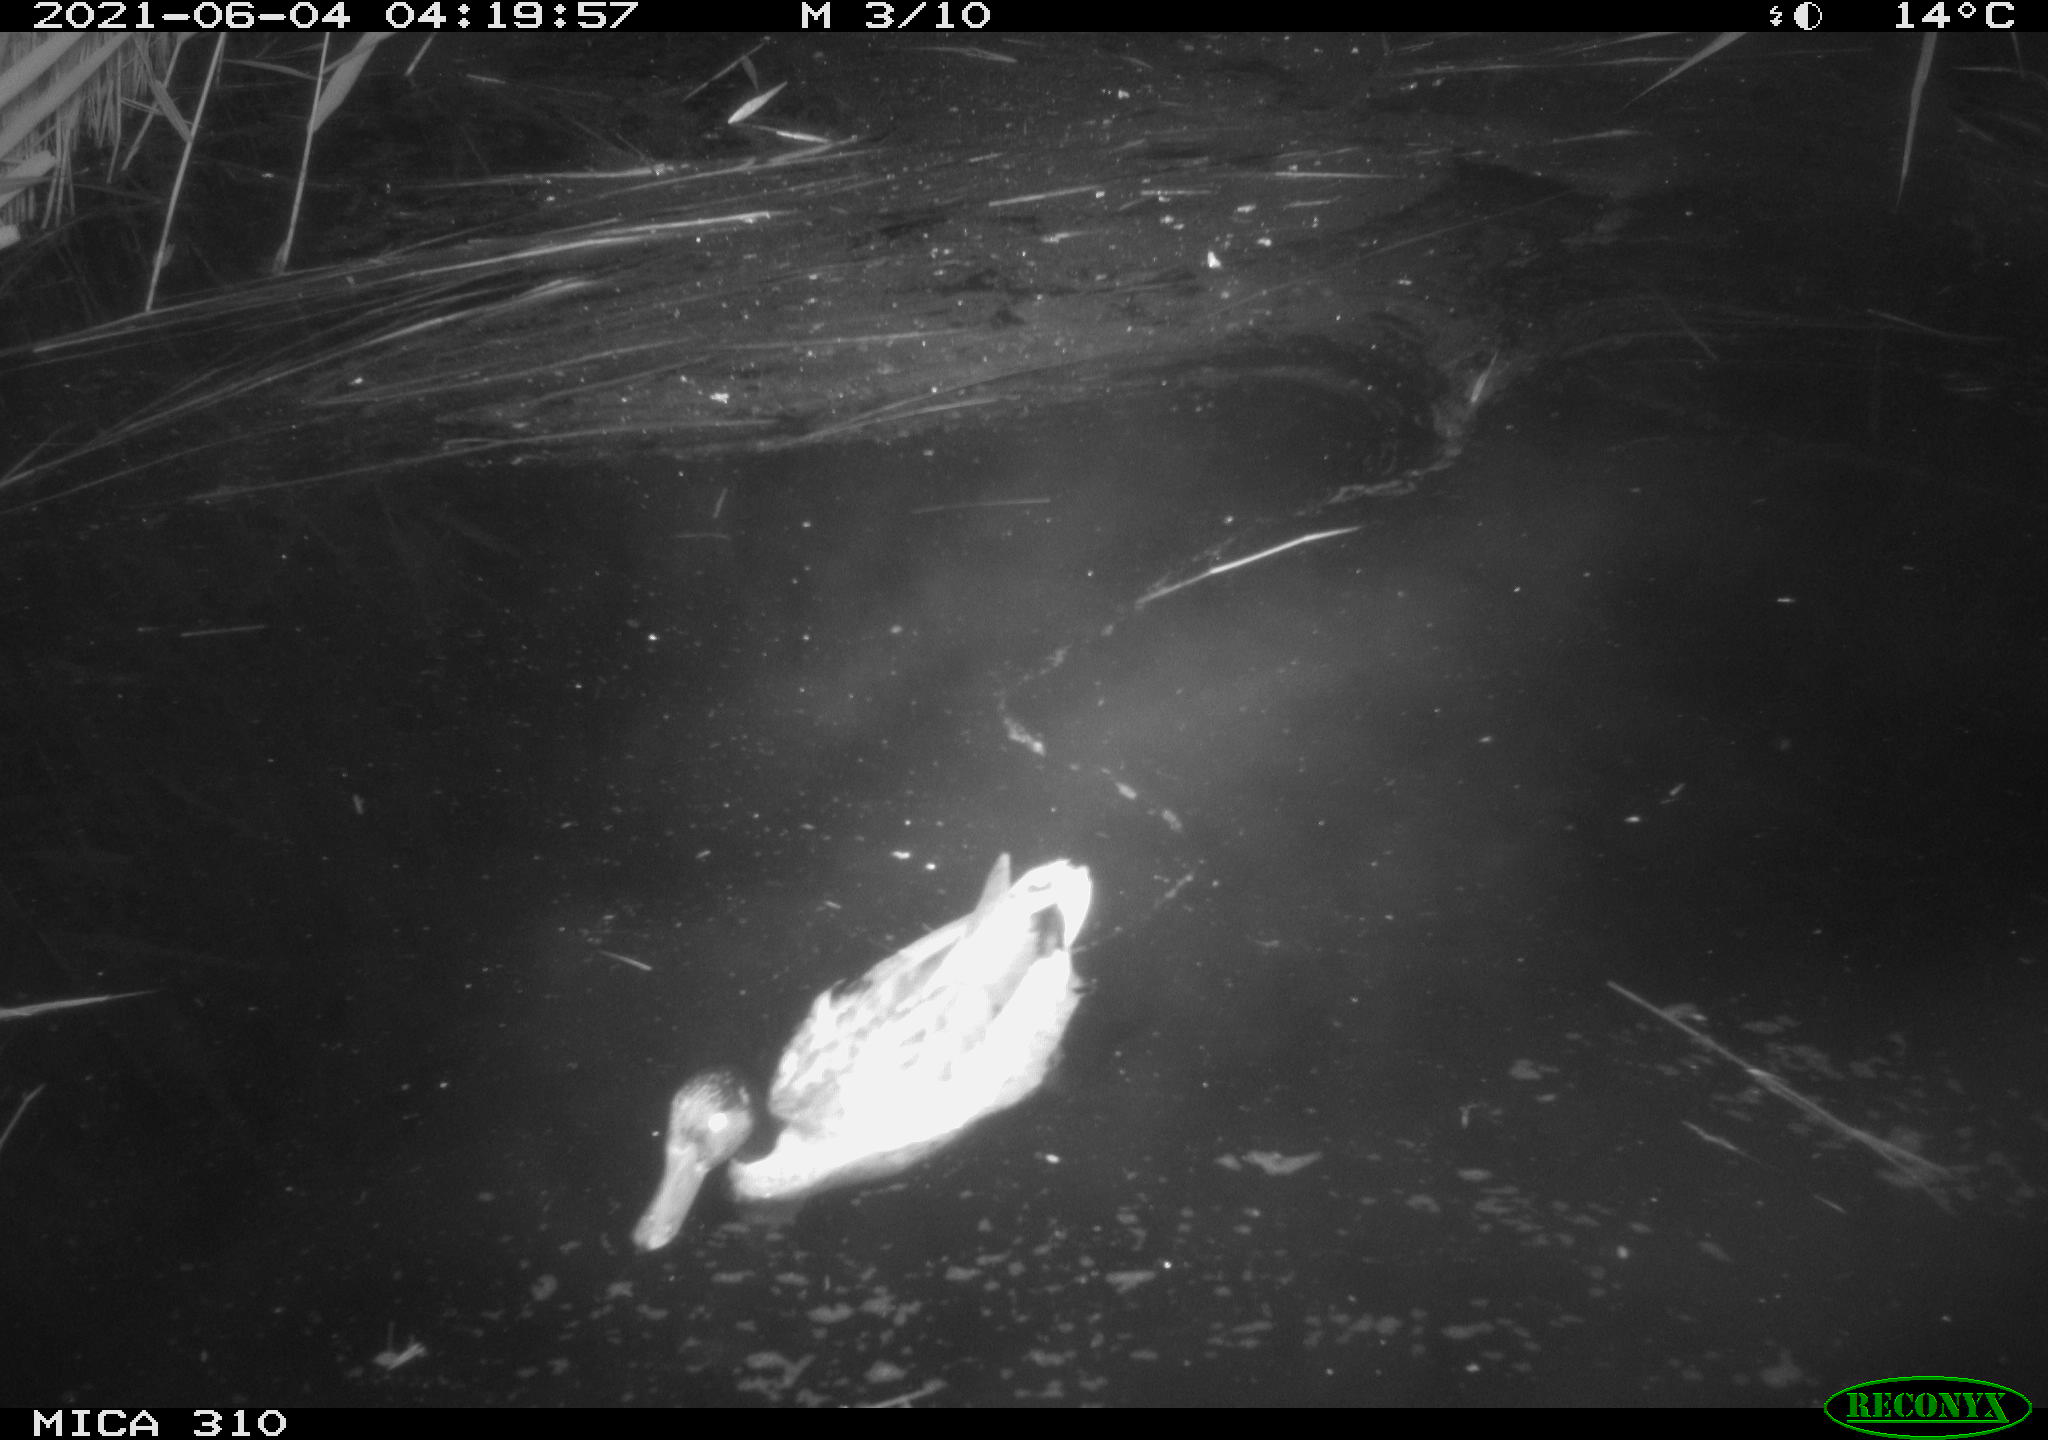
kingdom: Animalia
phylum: Chordata
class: Aves
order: Anseriformes
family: Anatidae
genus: Anas
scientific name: Anas
